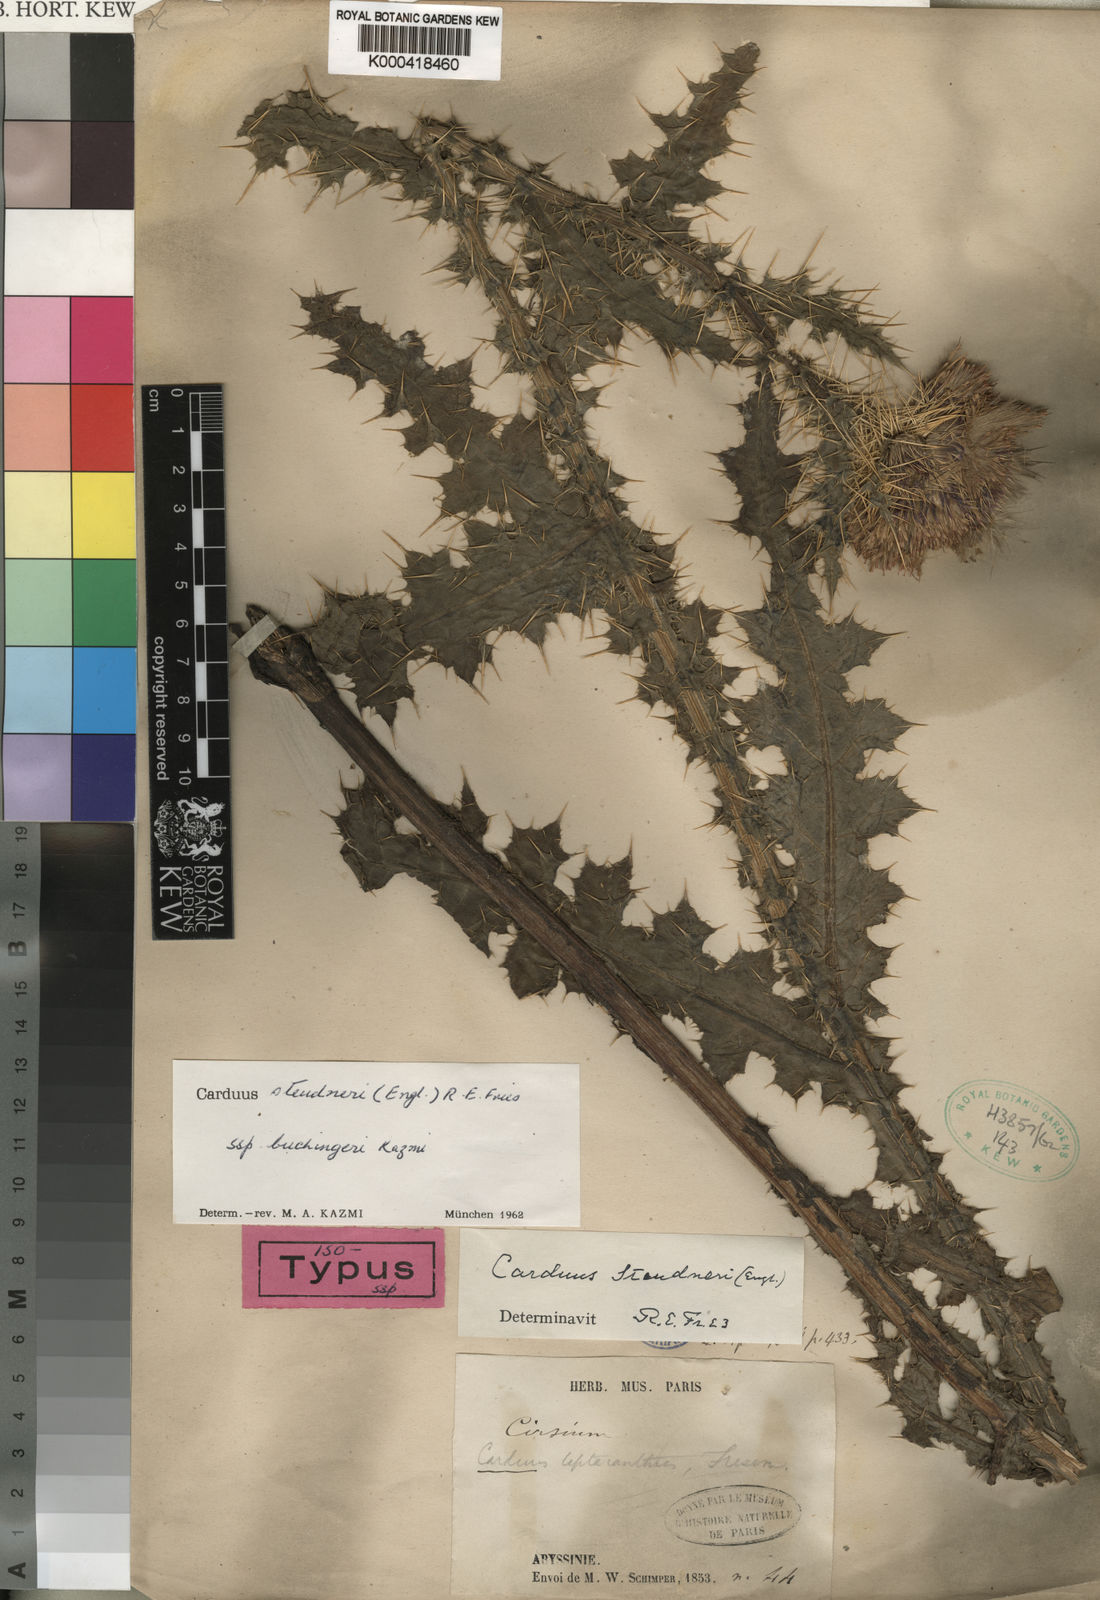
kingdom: Plantae
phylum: Tracheophyta
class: Magnoliopsida
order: Asterales
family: Asteraceae
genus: Carduus
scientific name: Carduus nyassanus
